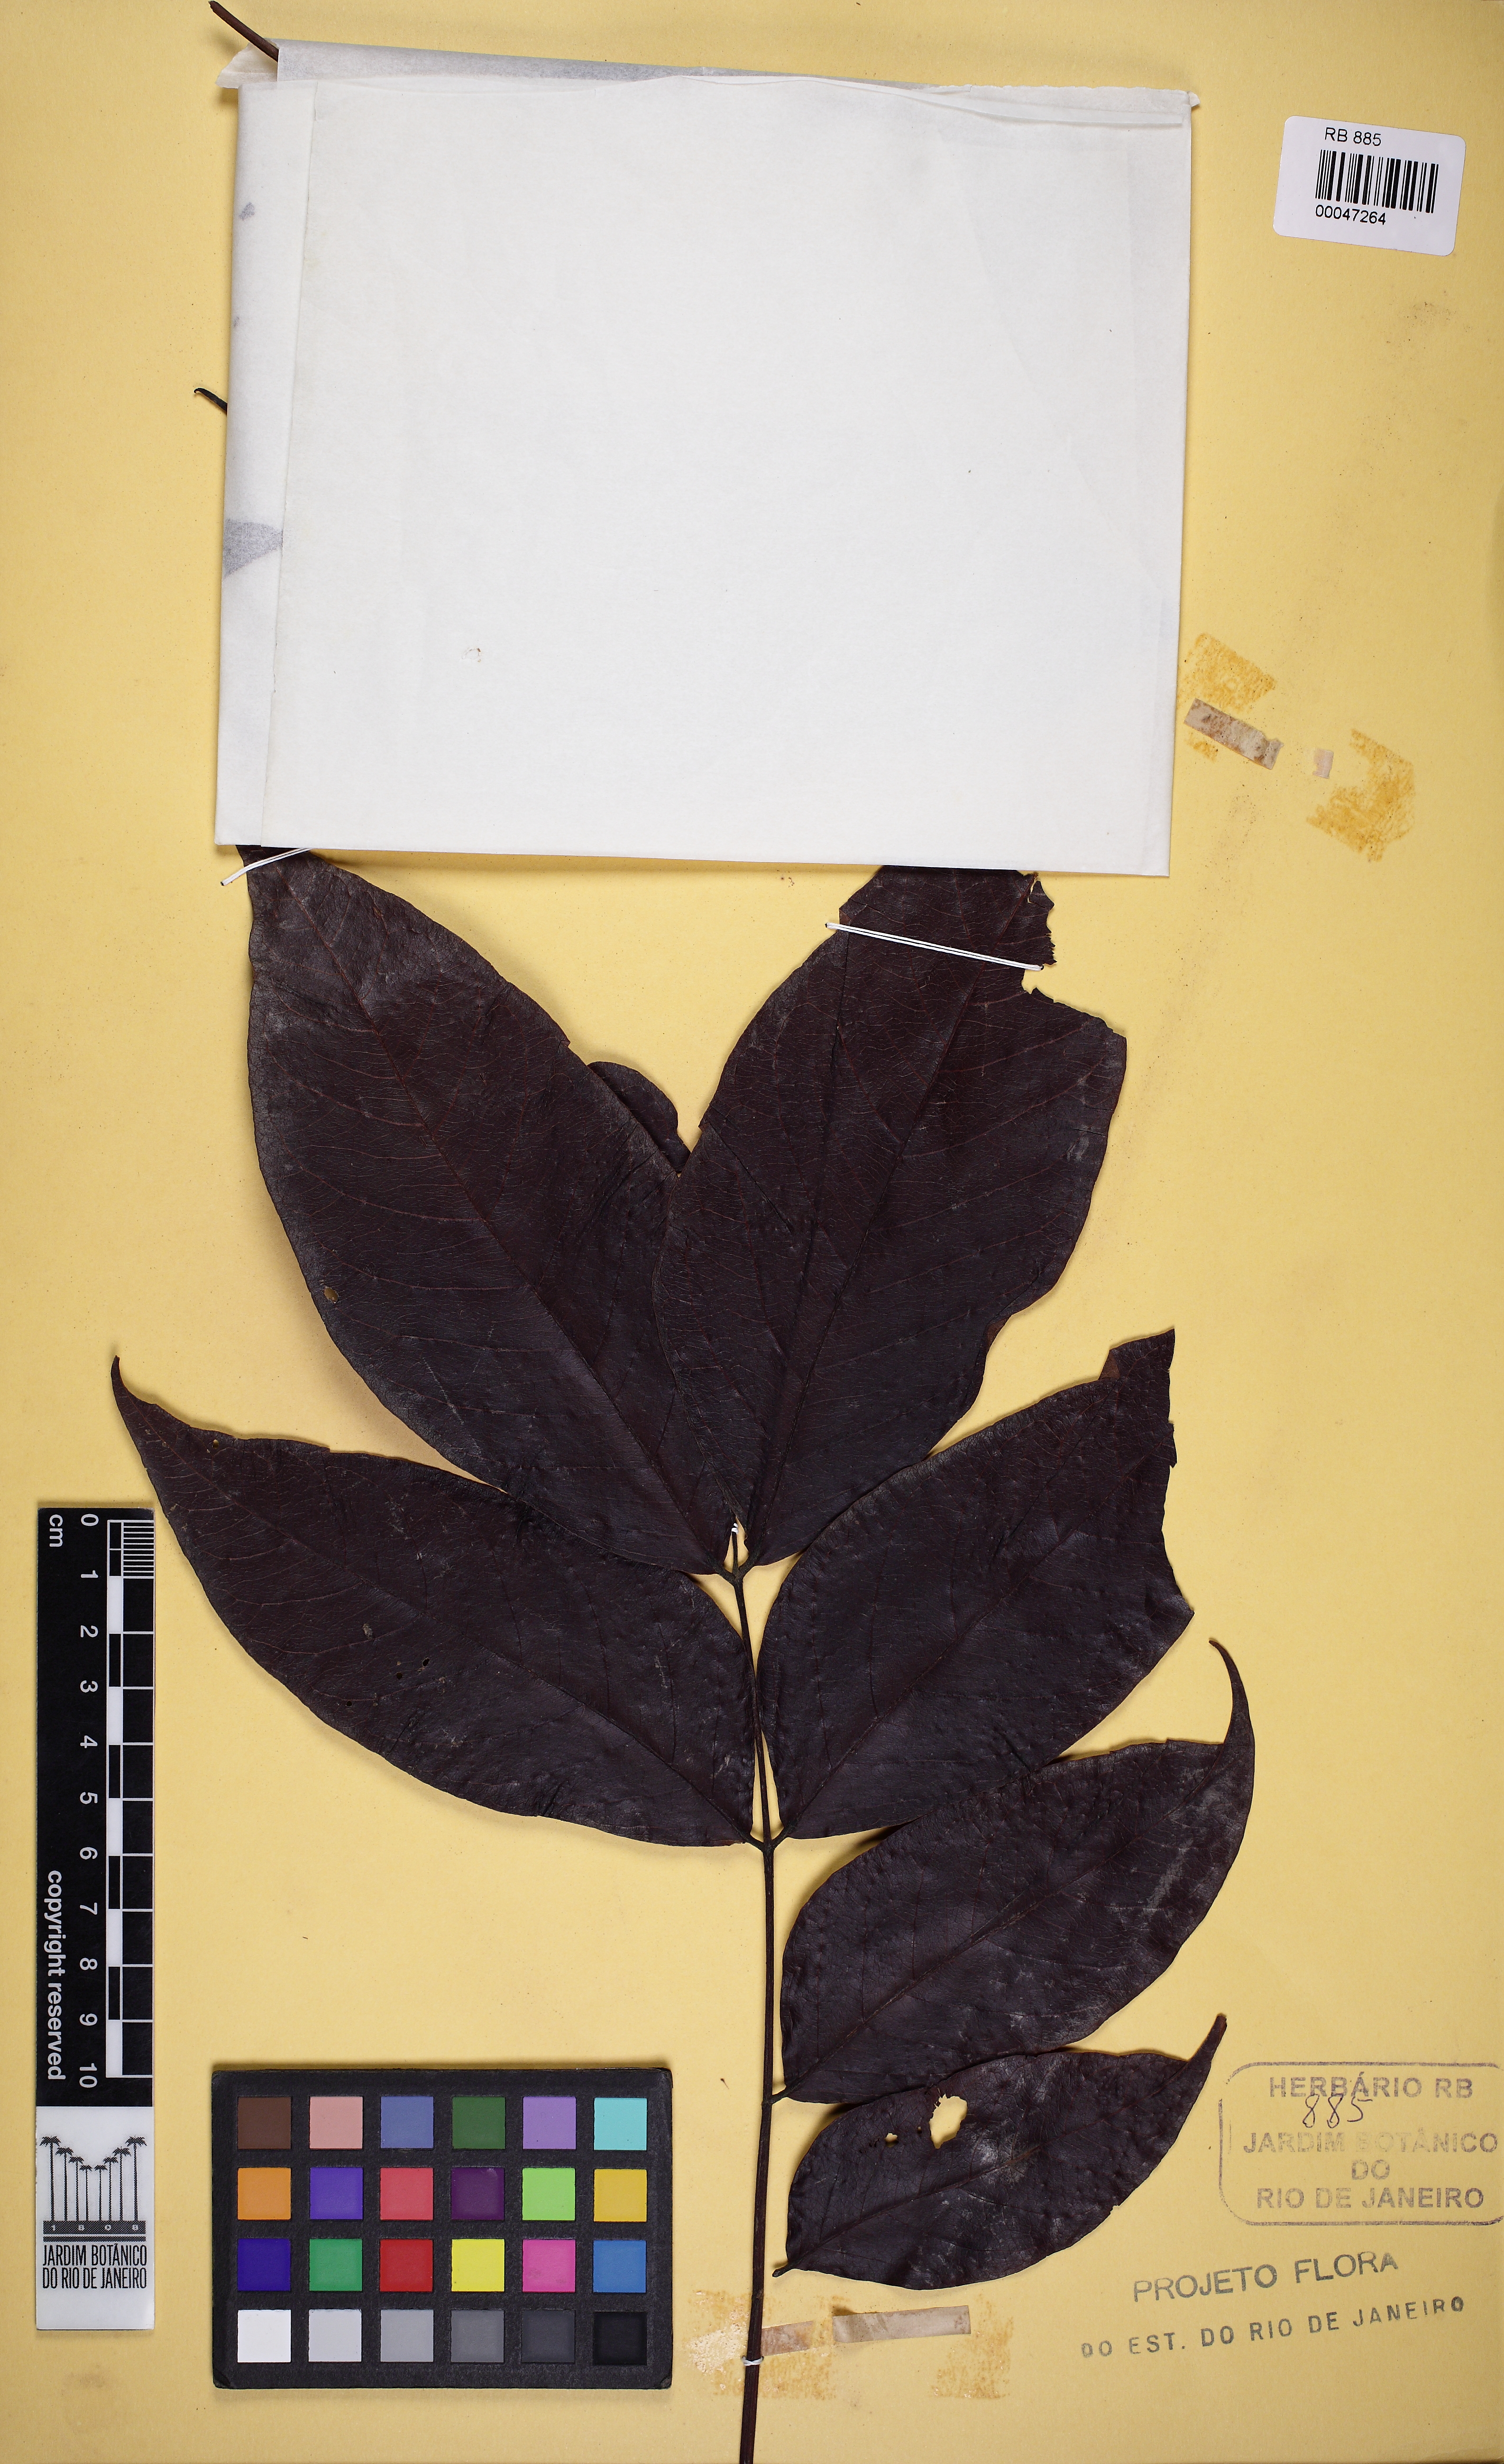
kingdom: Plantae
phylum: Tracheophyta
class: Magnoliopsida
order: Fabales
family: Fabaceae
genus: Acrocarpus
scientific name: Acrocarpus fraxinifolius
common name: Kenya coffeeshade
